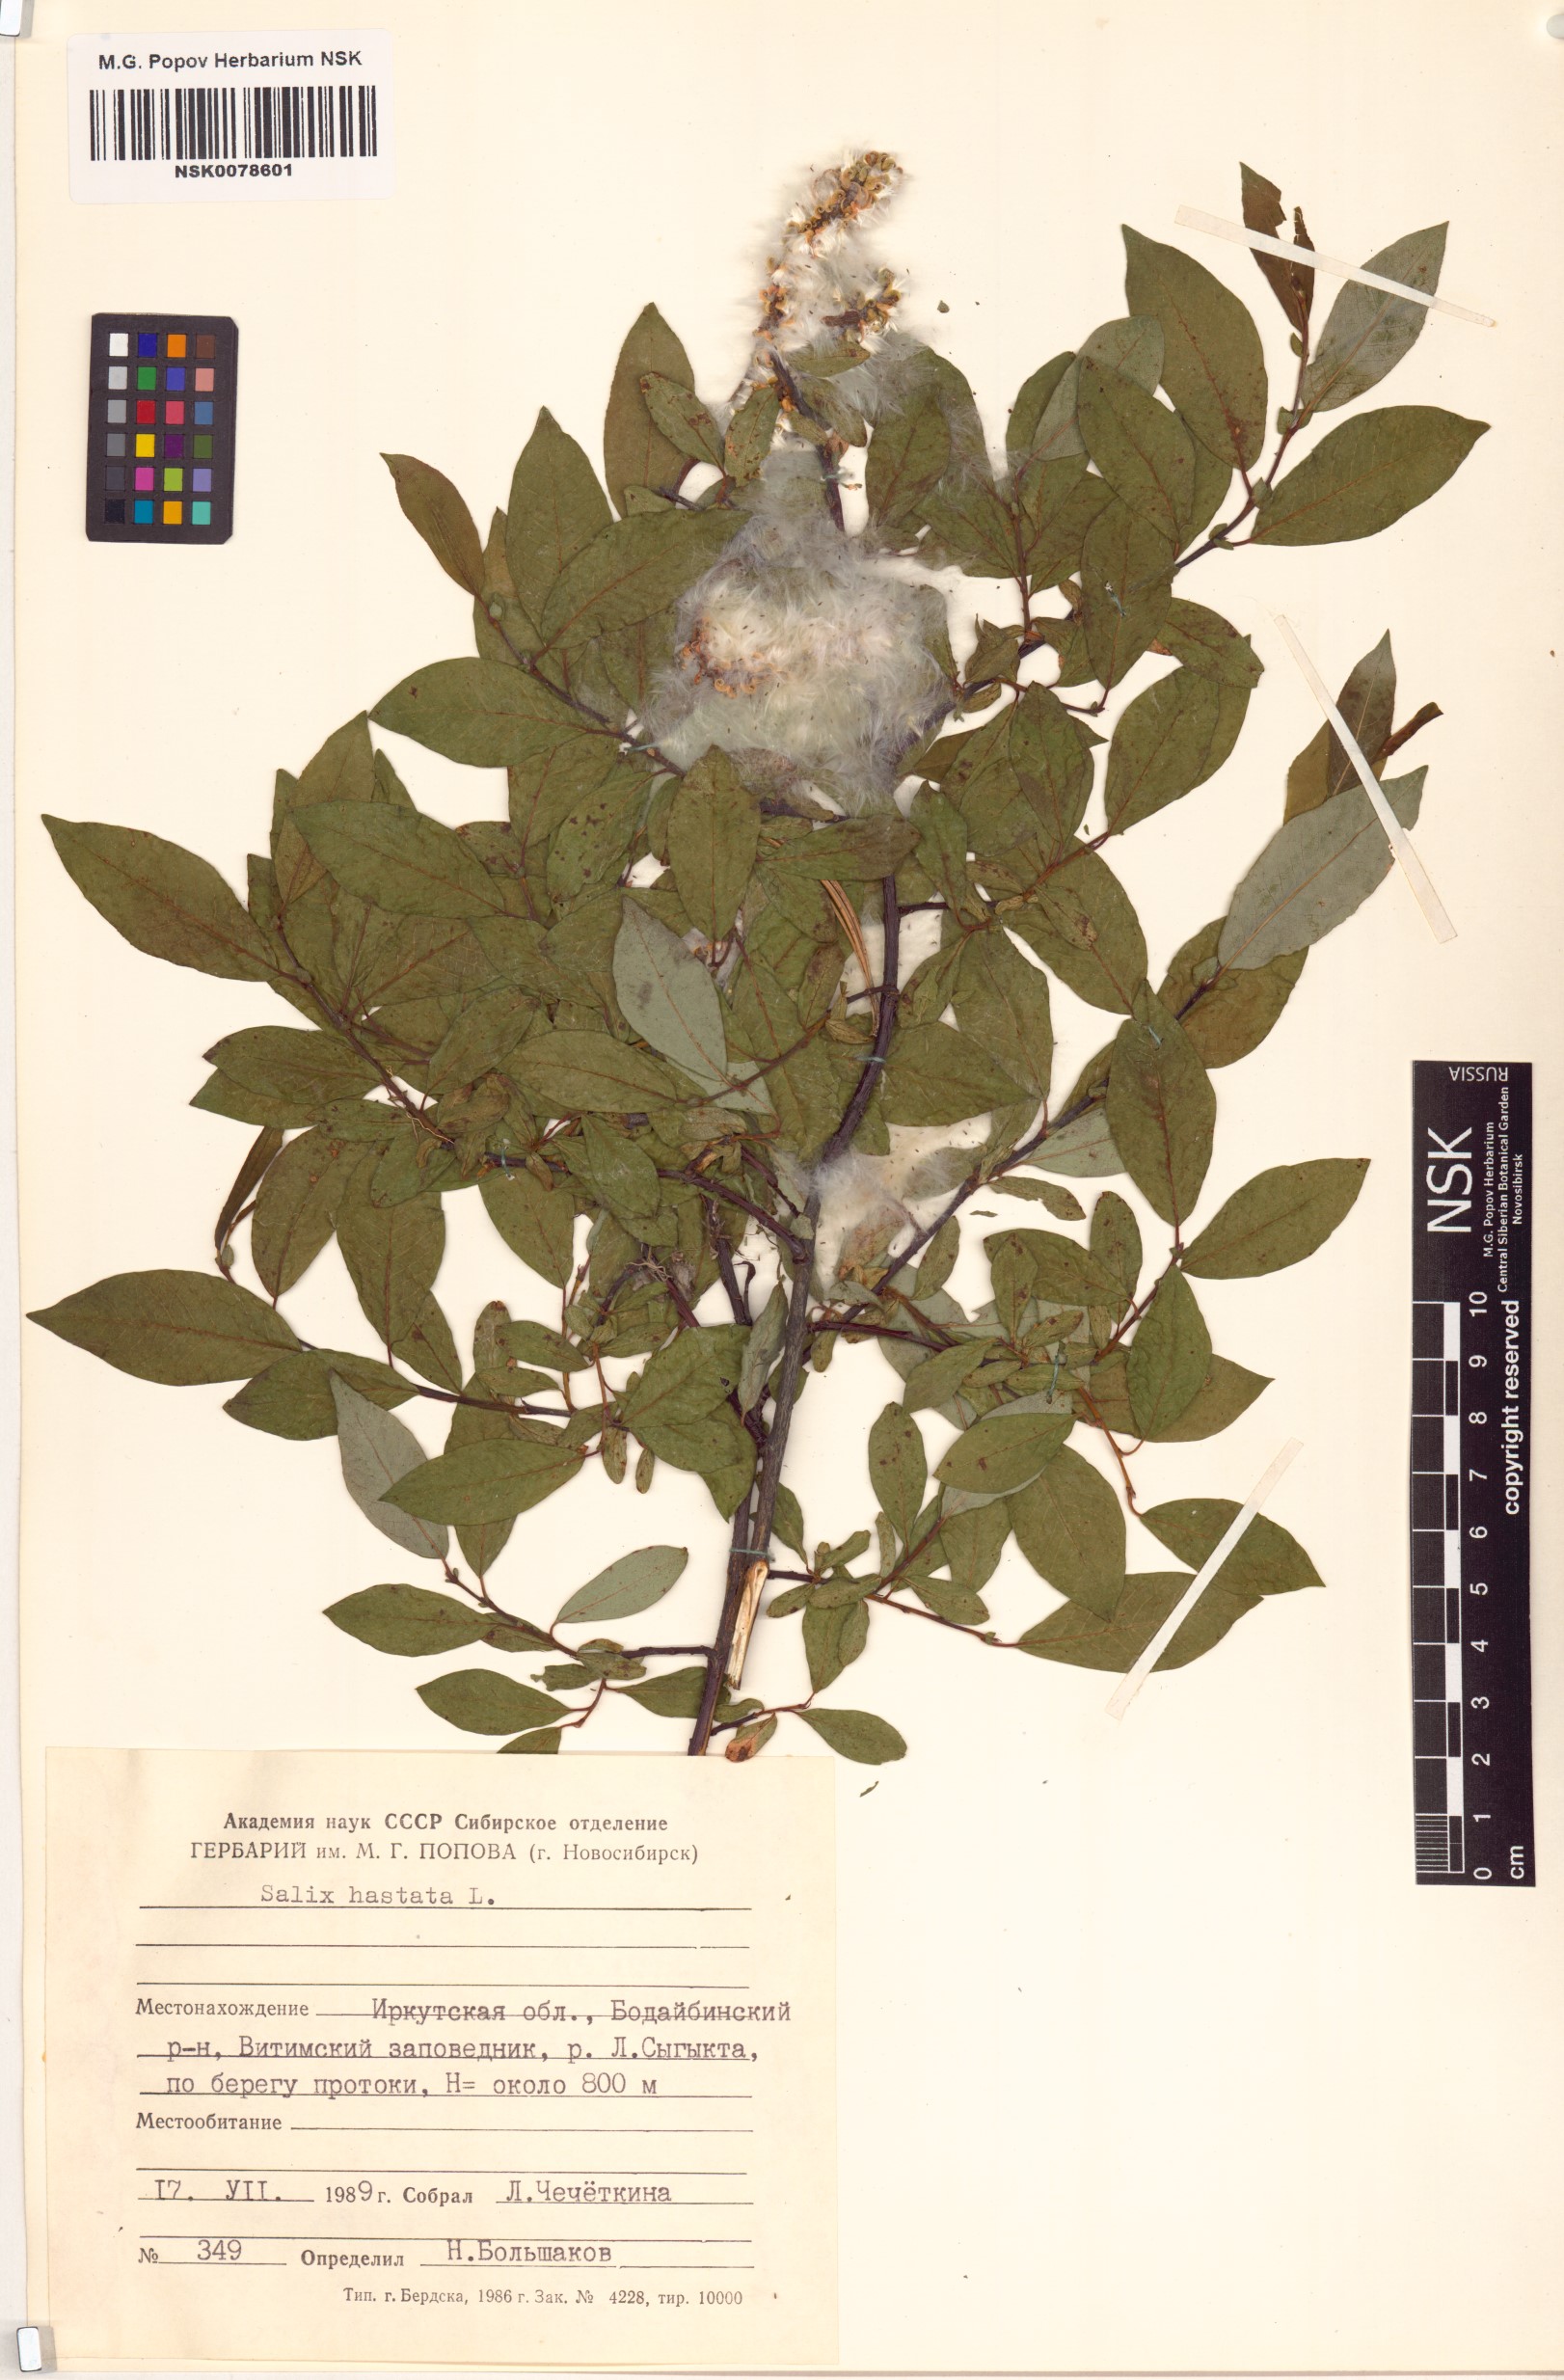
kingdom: Plantae
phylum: Tracheophyta
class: Magnoliopsida
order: Malpighiales
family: Salicaceae
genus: Salix
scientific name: Salix hastata
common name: Halberd willow
